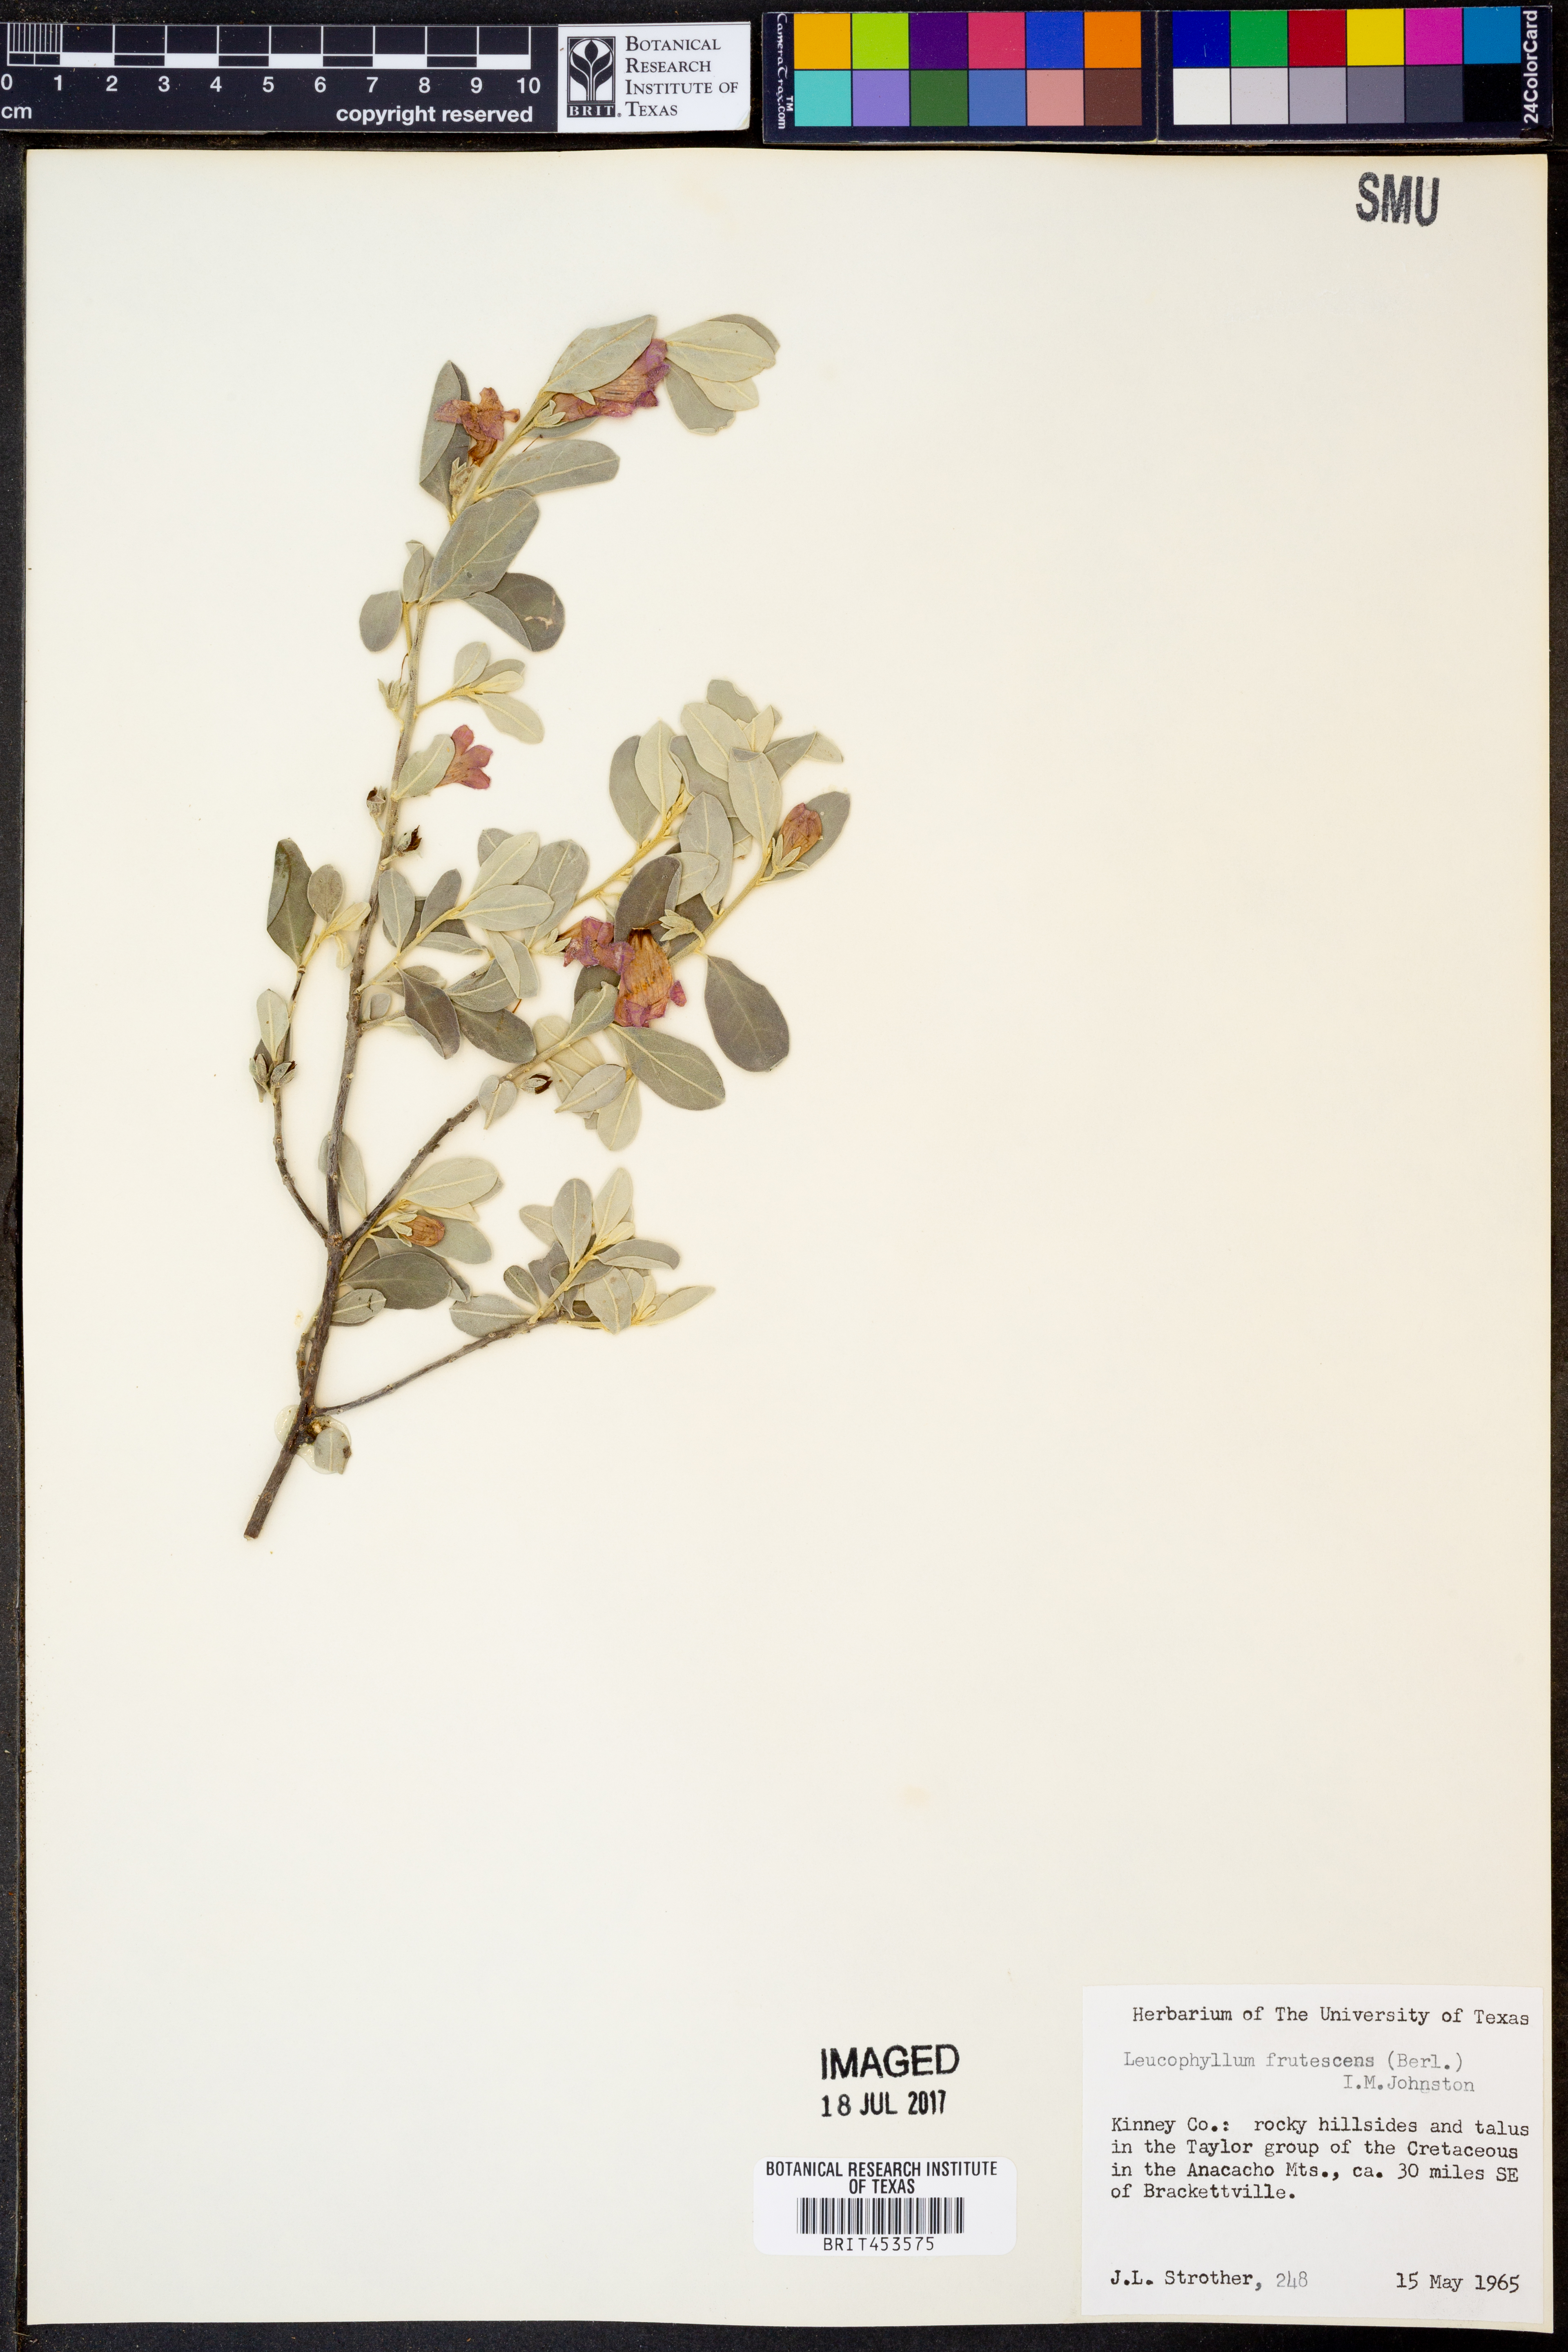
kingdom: Plantae
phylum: Tracheophyta
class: Magnoliopsida
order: Lamiales
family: Scrophulariaceae
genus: Leucophyllum
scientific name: Leucophyllum frutescens
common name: Texas silverleaf
